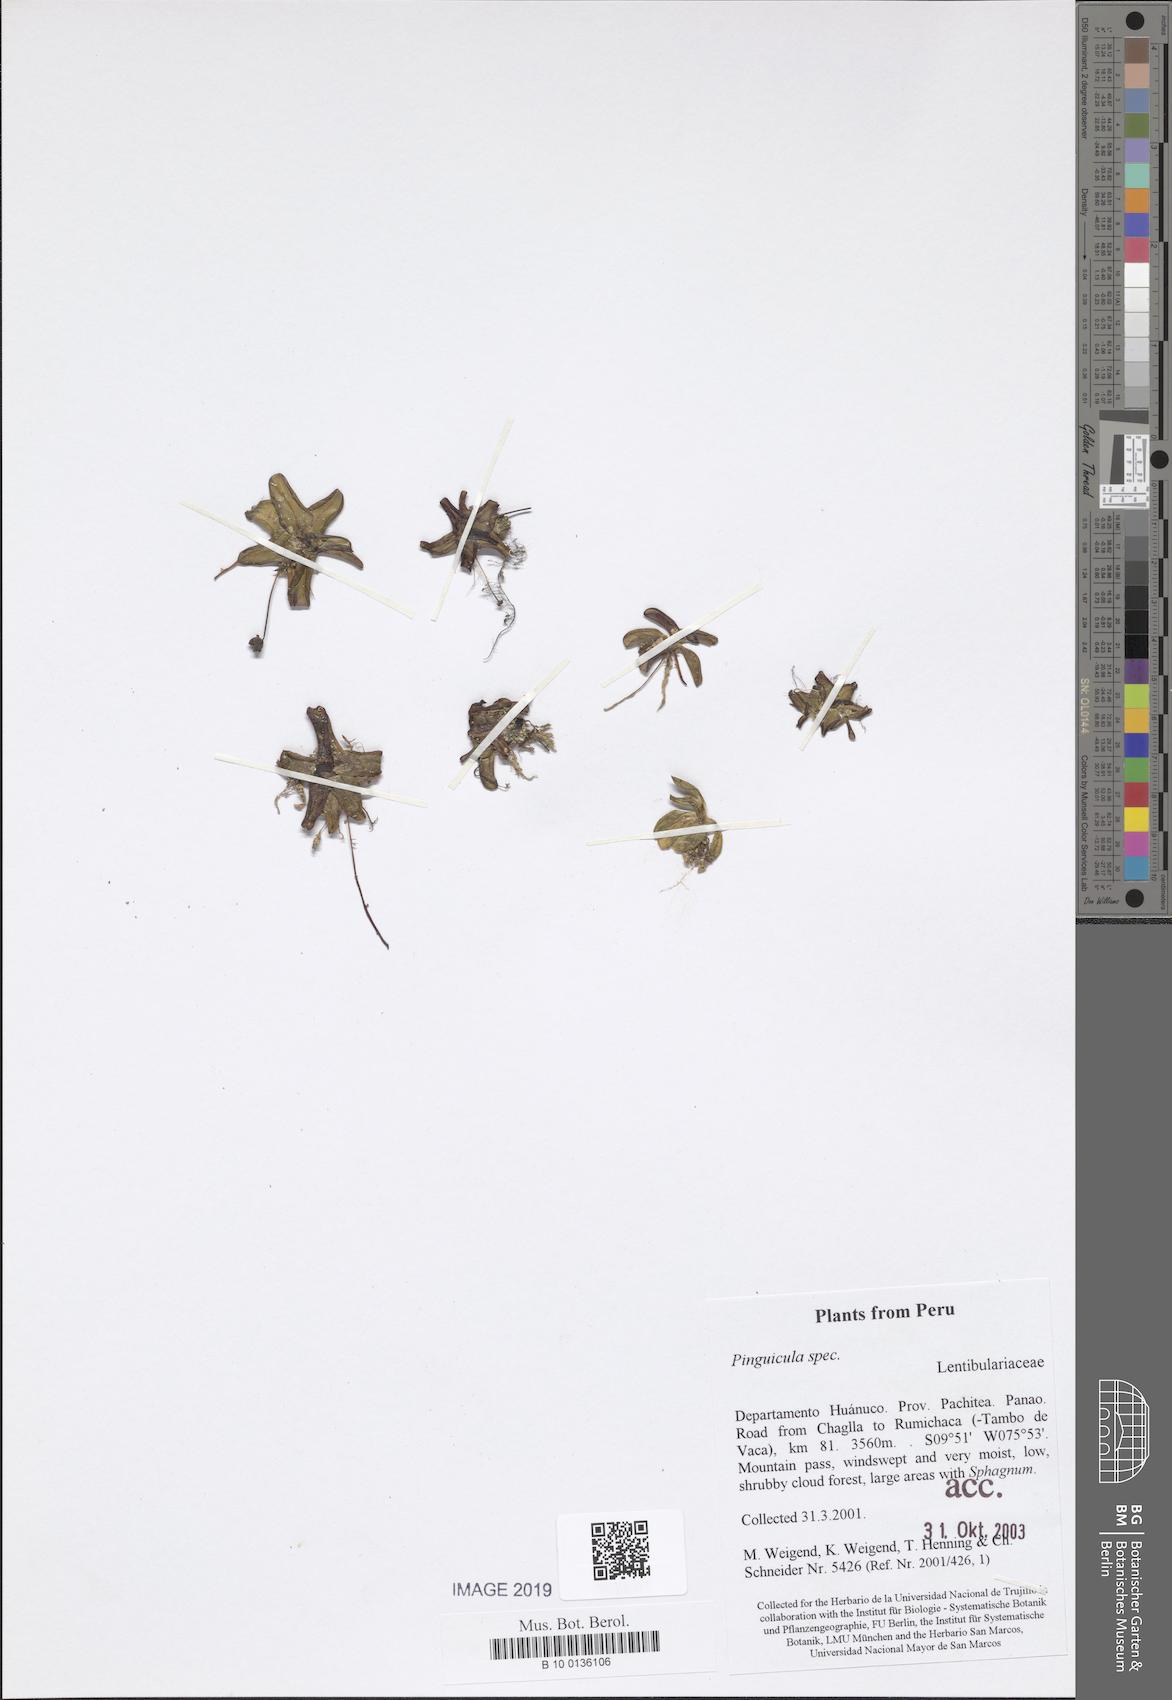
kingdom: Plantae
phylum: Tracheophyta
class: Magnoliopsida
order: Lamiales
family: Lentibulariaceae
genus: Pinguicula
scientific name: Pinguicula
